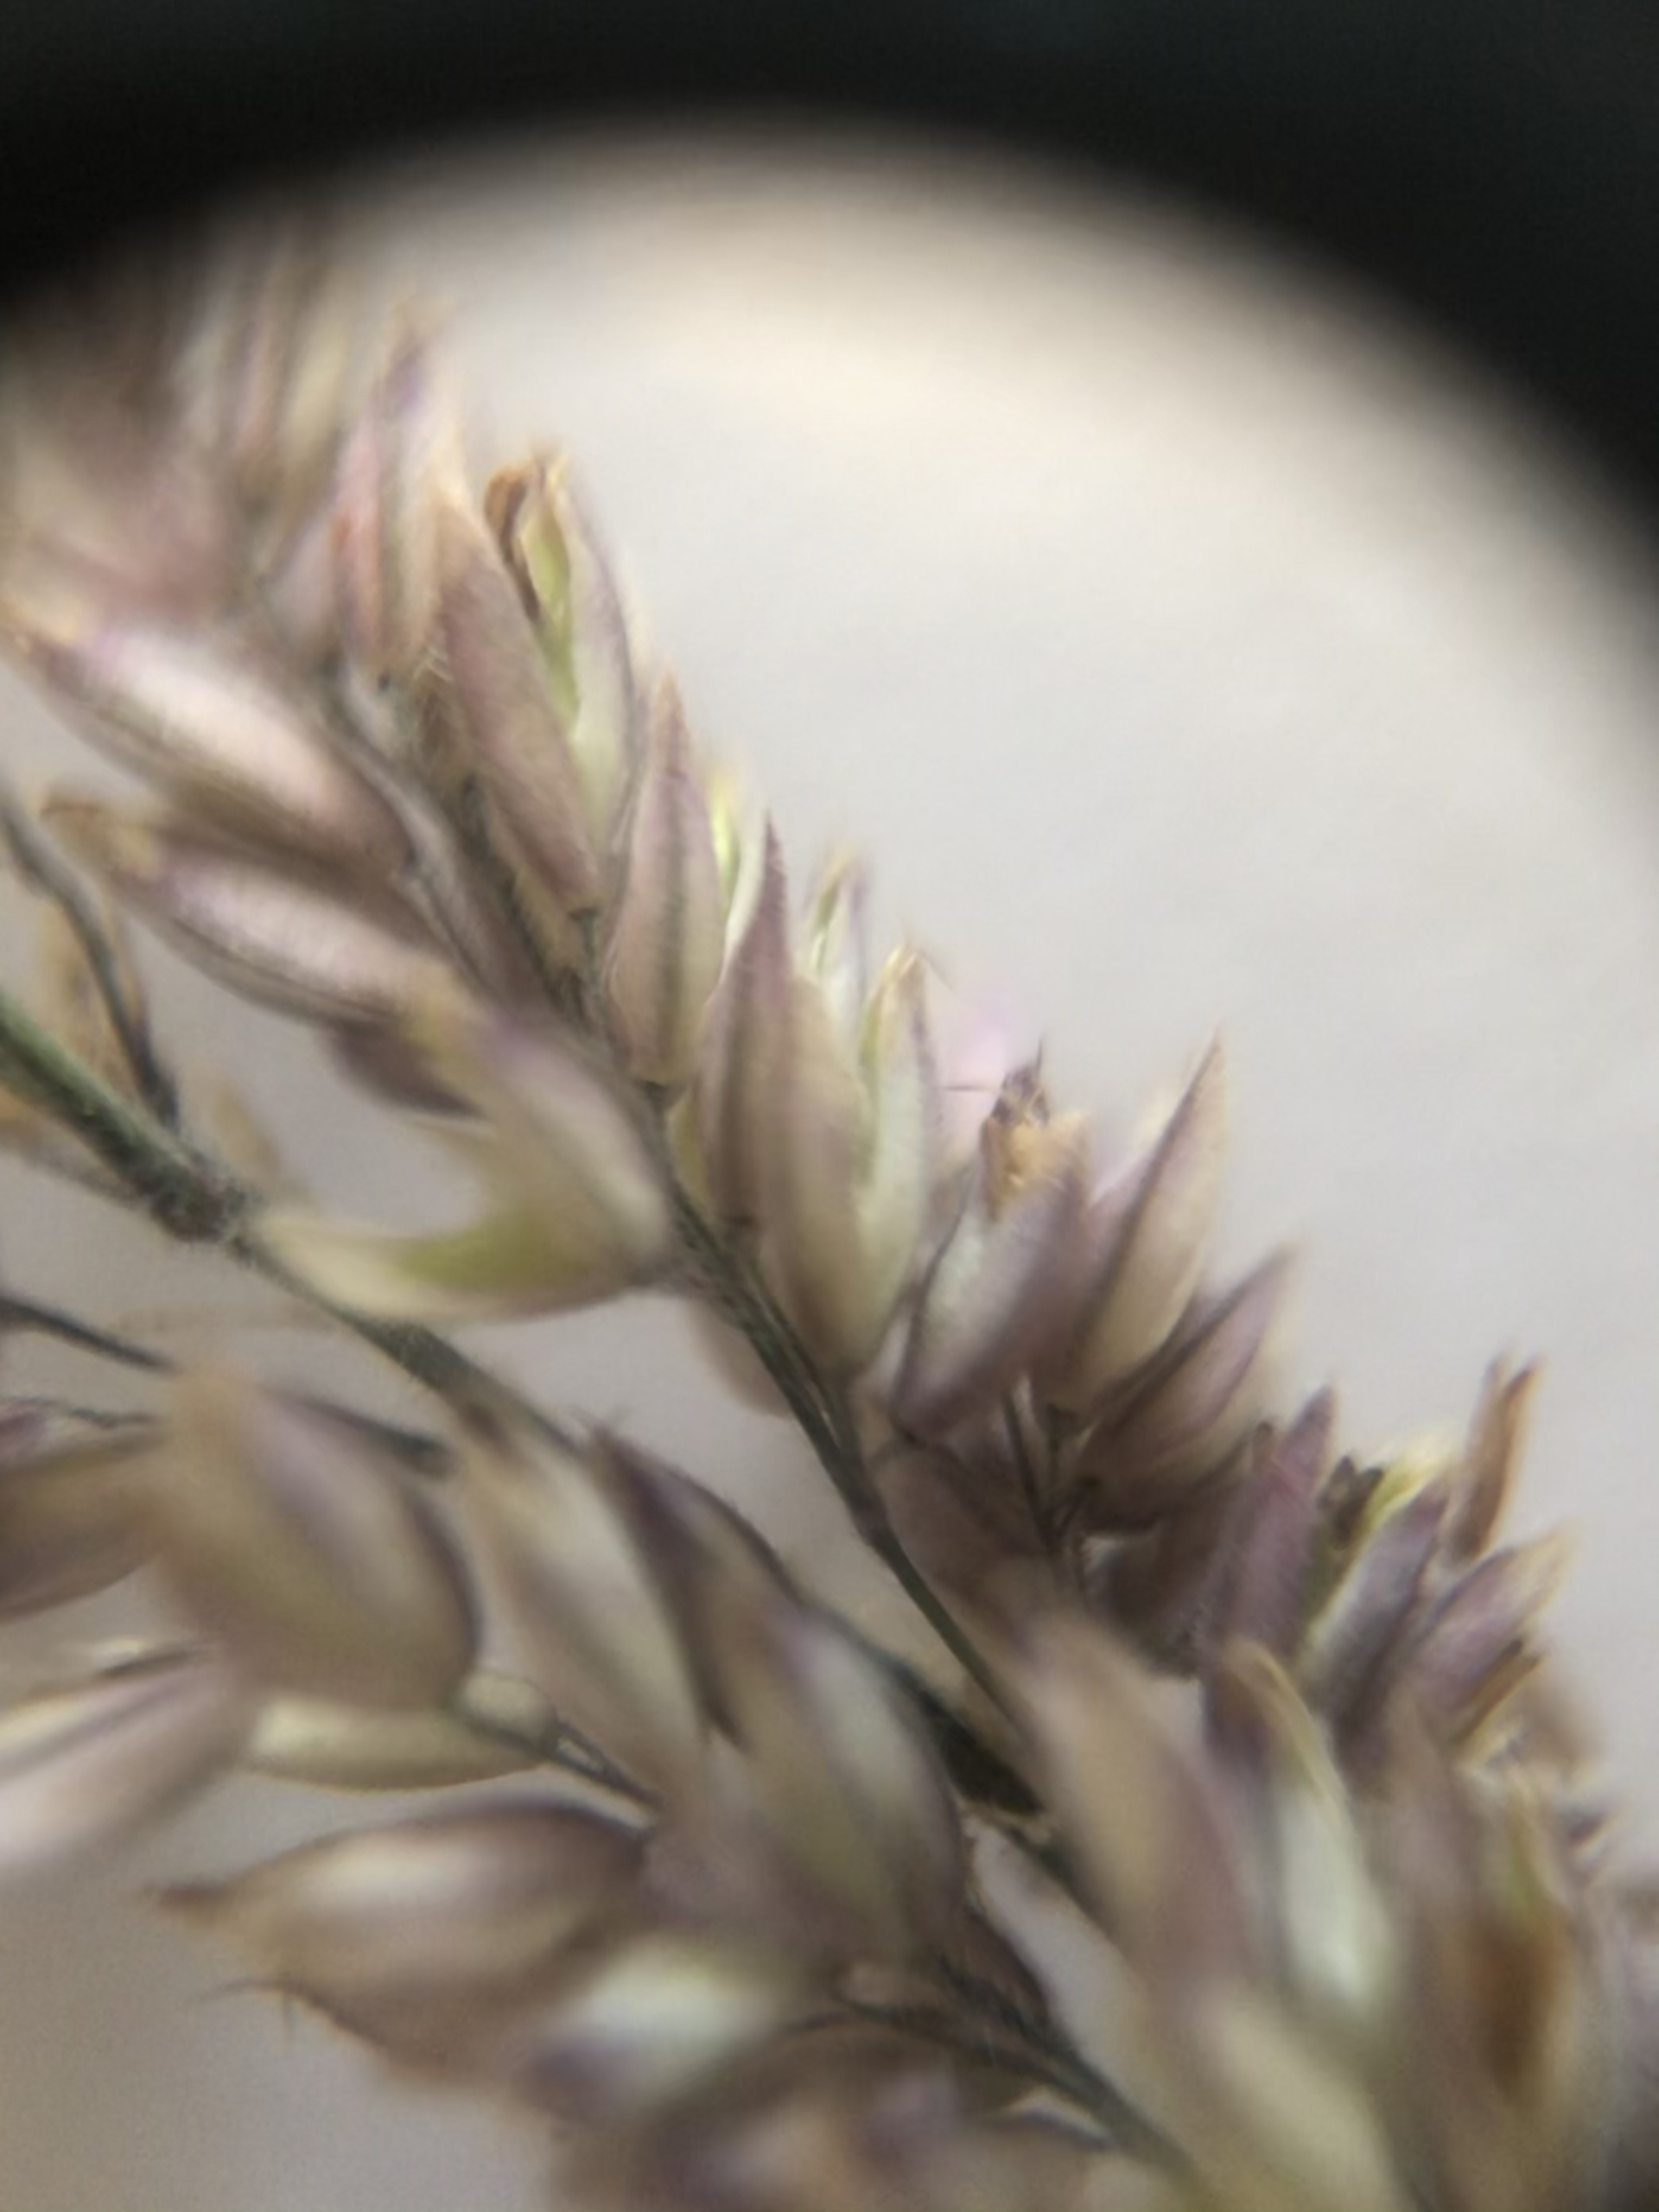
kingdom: Plantae
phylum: Tracheophyta
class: Liliopsida
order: Poales
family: Poaceae
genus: Holcus
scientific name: Holcus lanatus
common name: Fløjlsgræs
